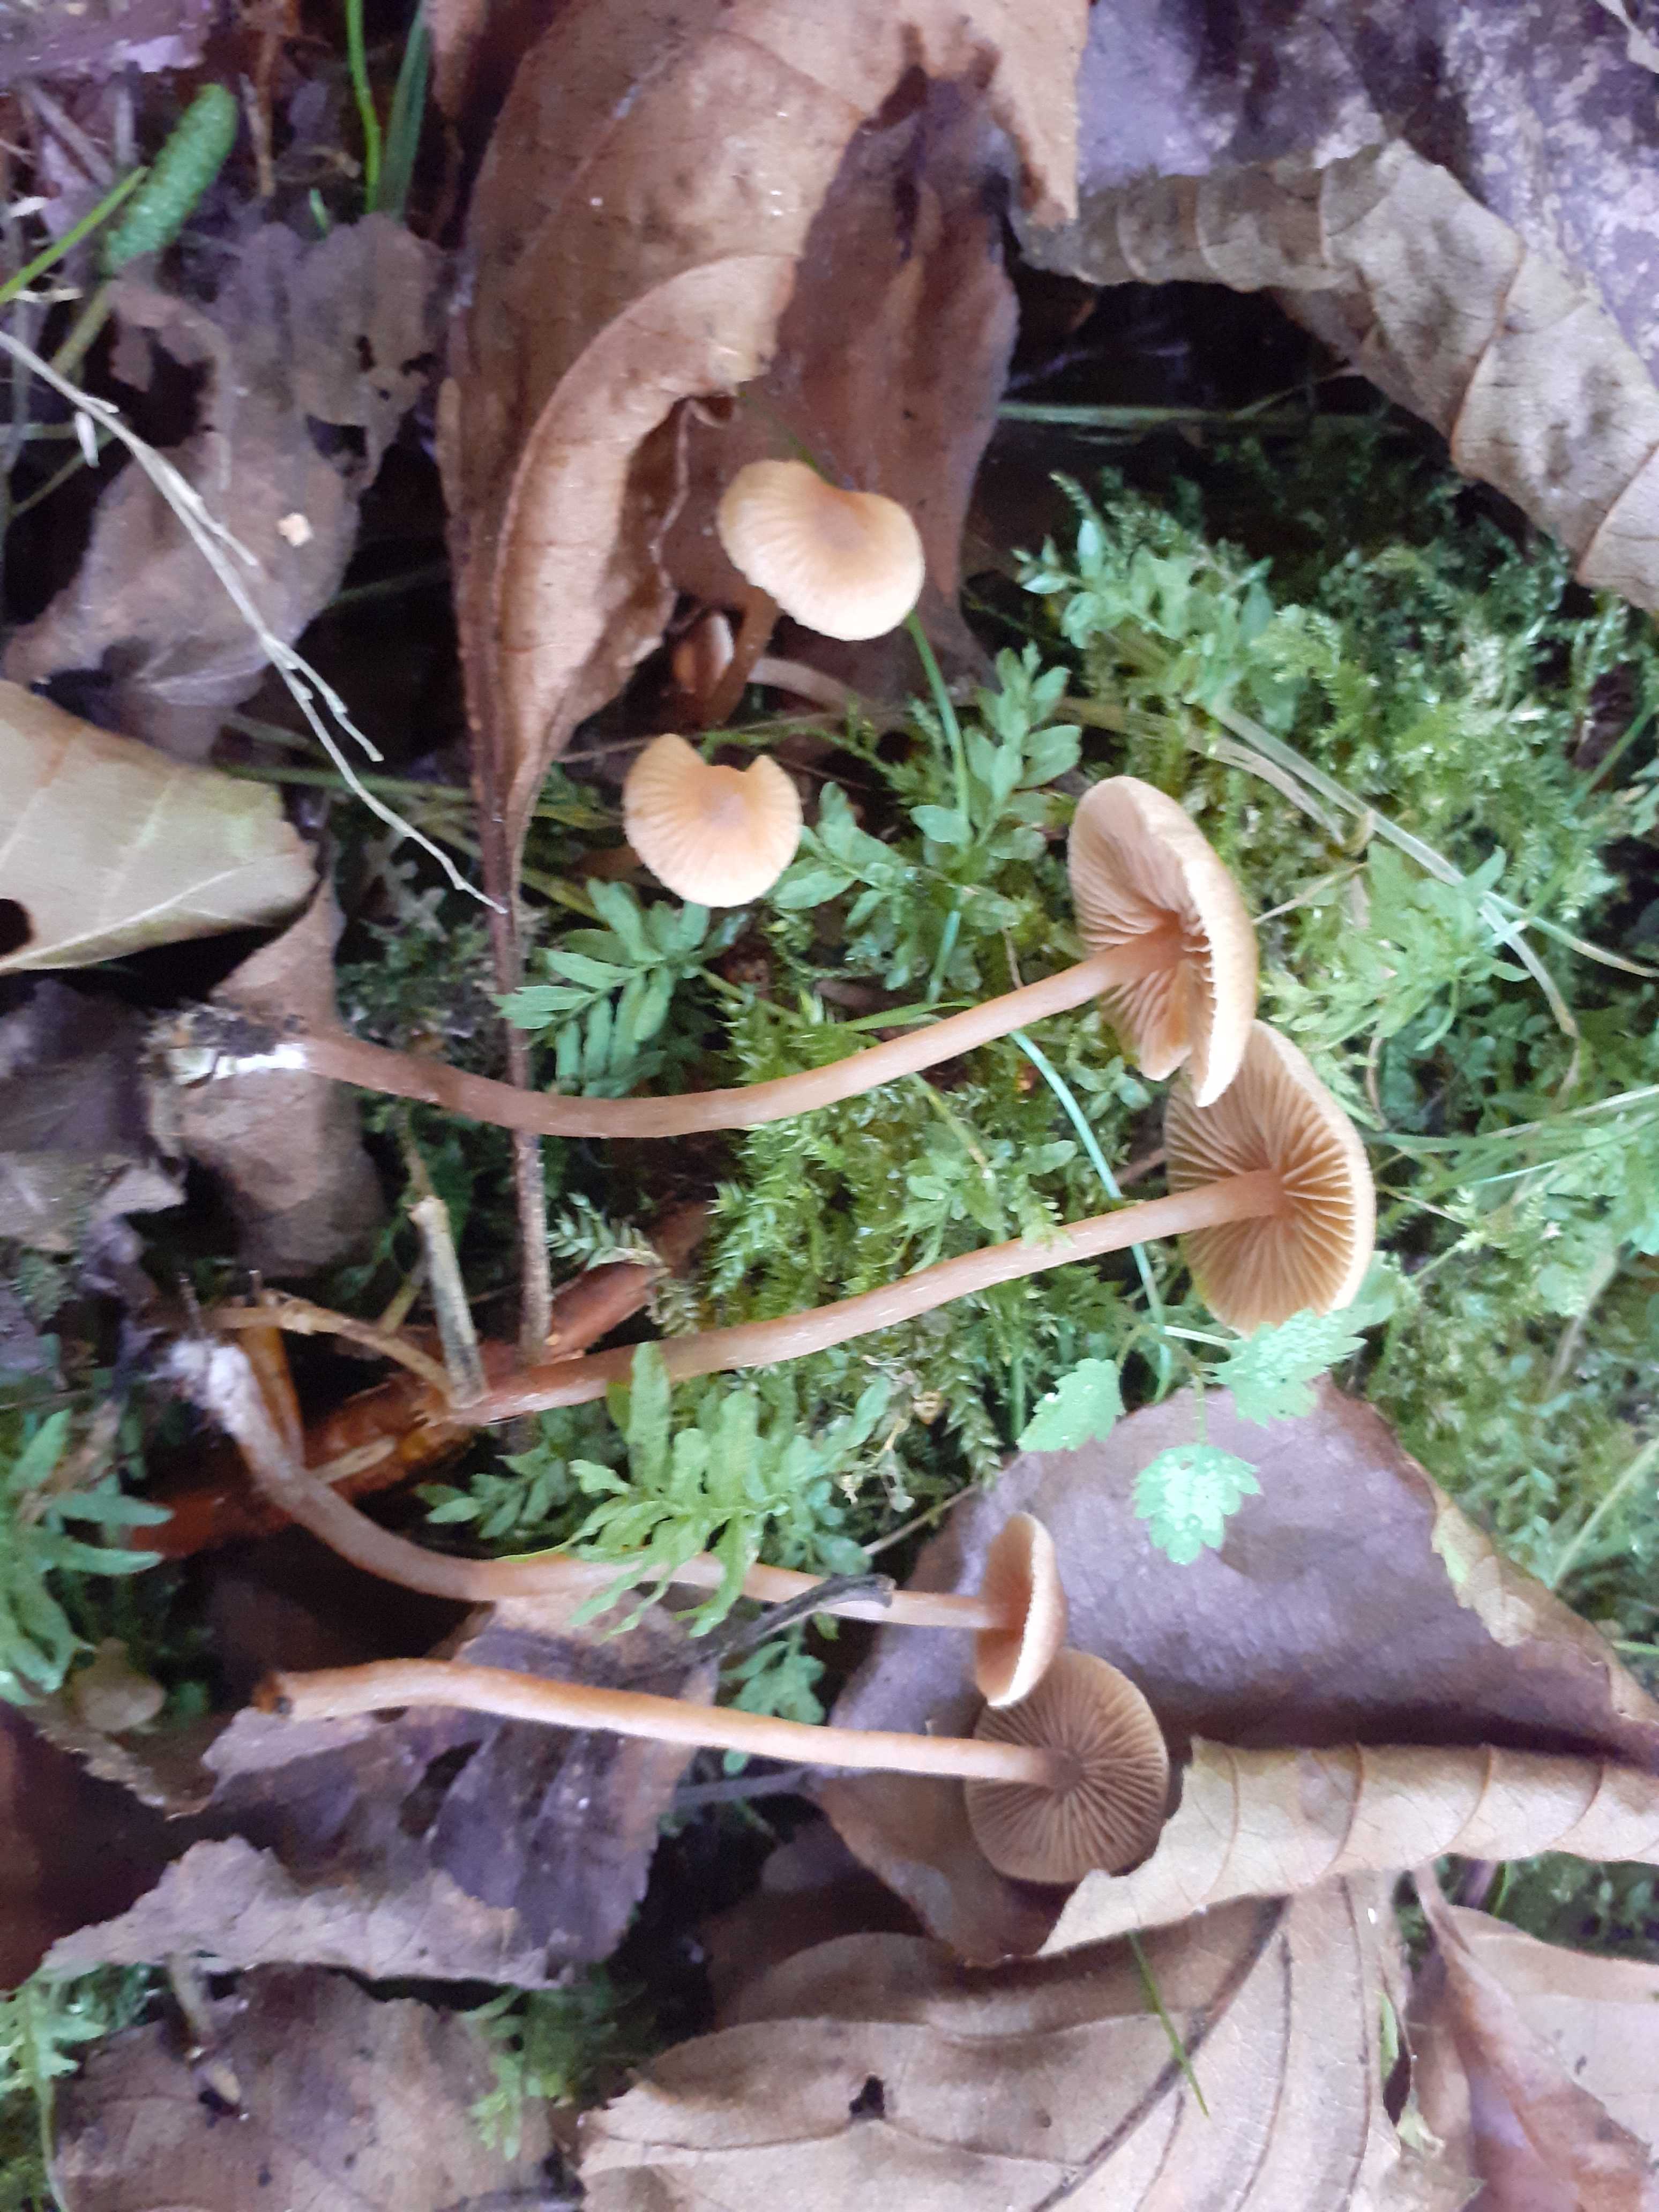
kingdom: Fungi
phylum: Basidiomycota
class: Agaricomycetes
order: Agaricales
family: Hymenogastraceae
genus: Naucoria
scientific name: Naucoria scolecina
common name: mørk elle-knaphat
